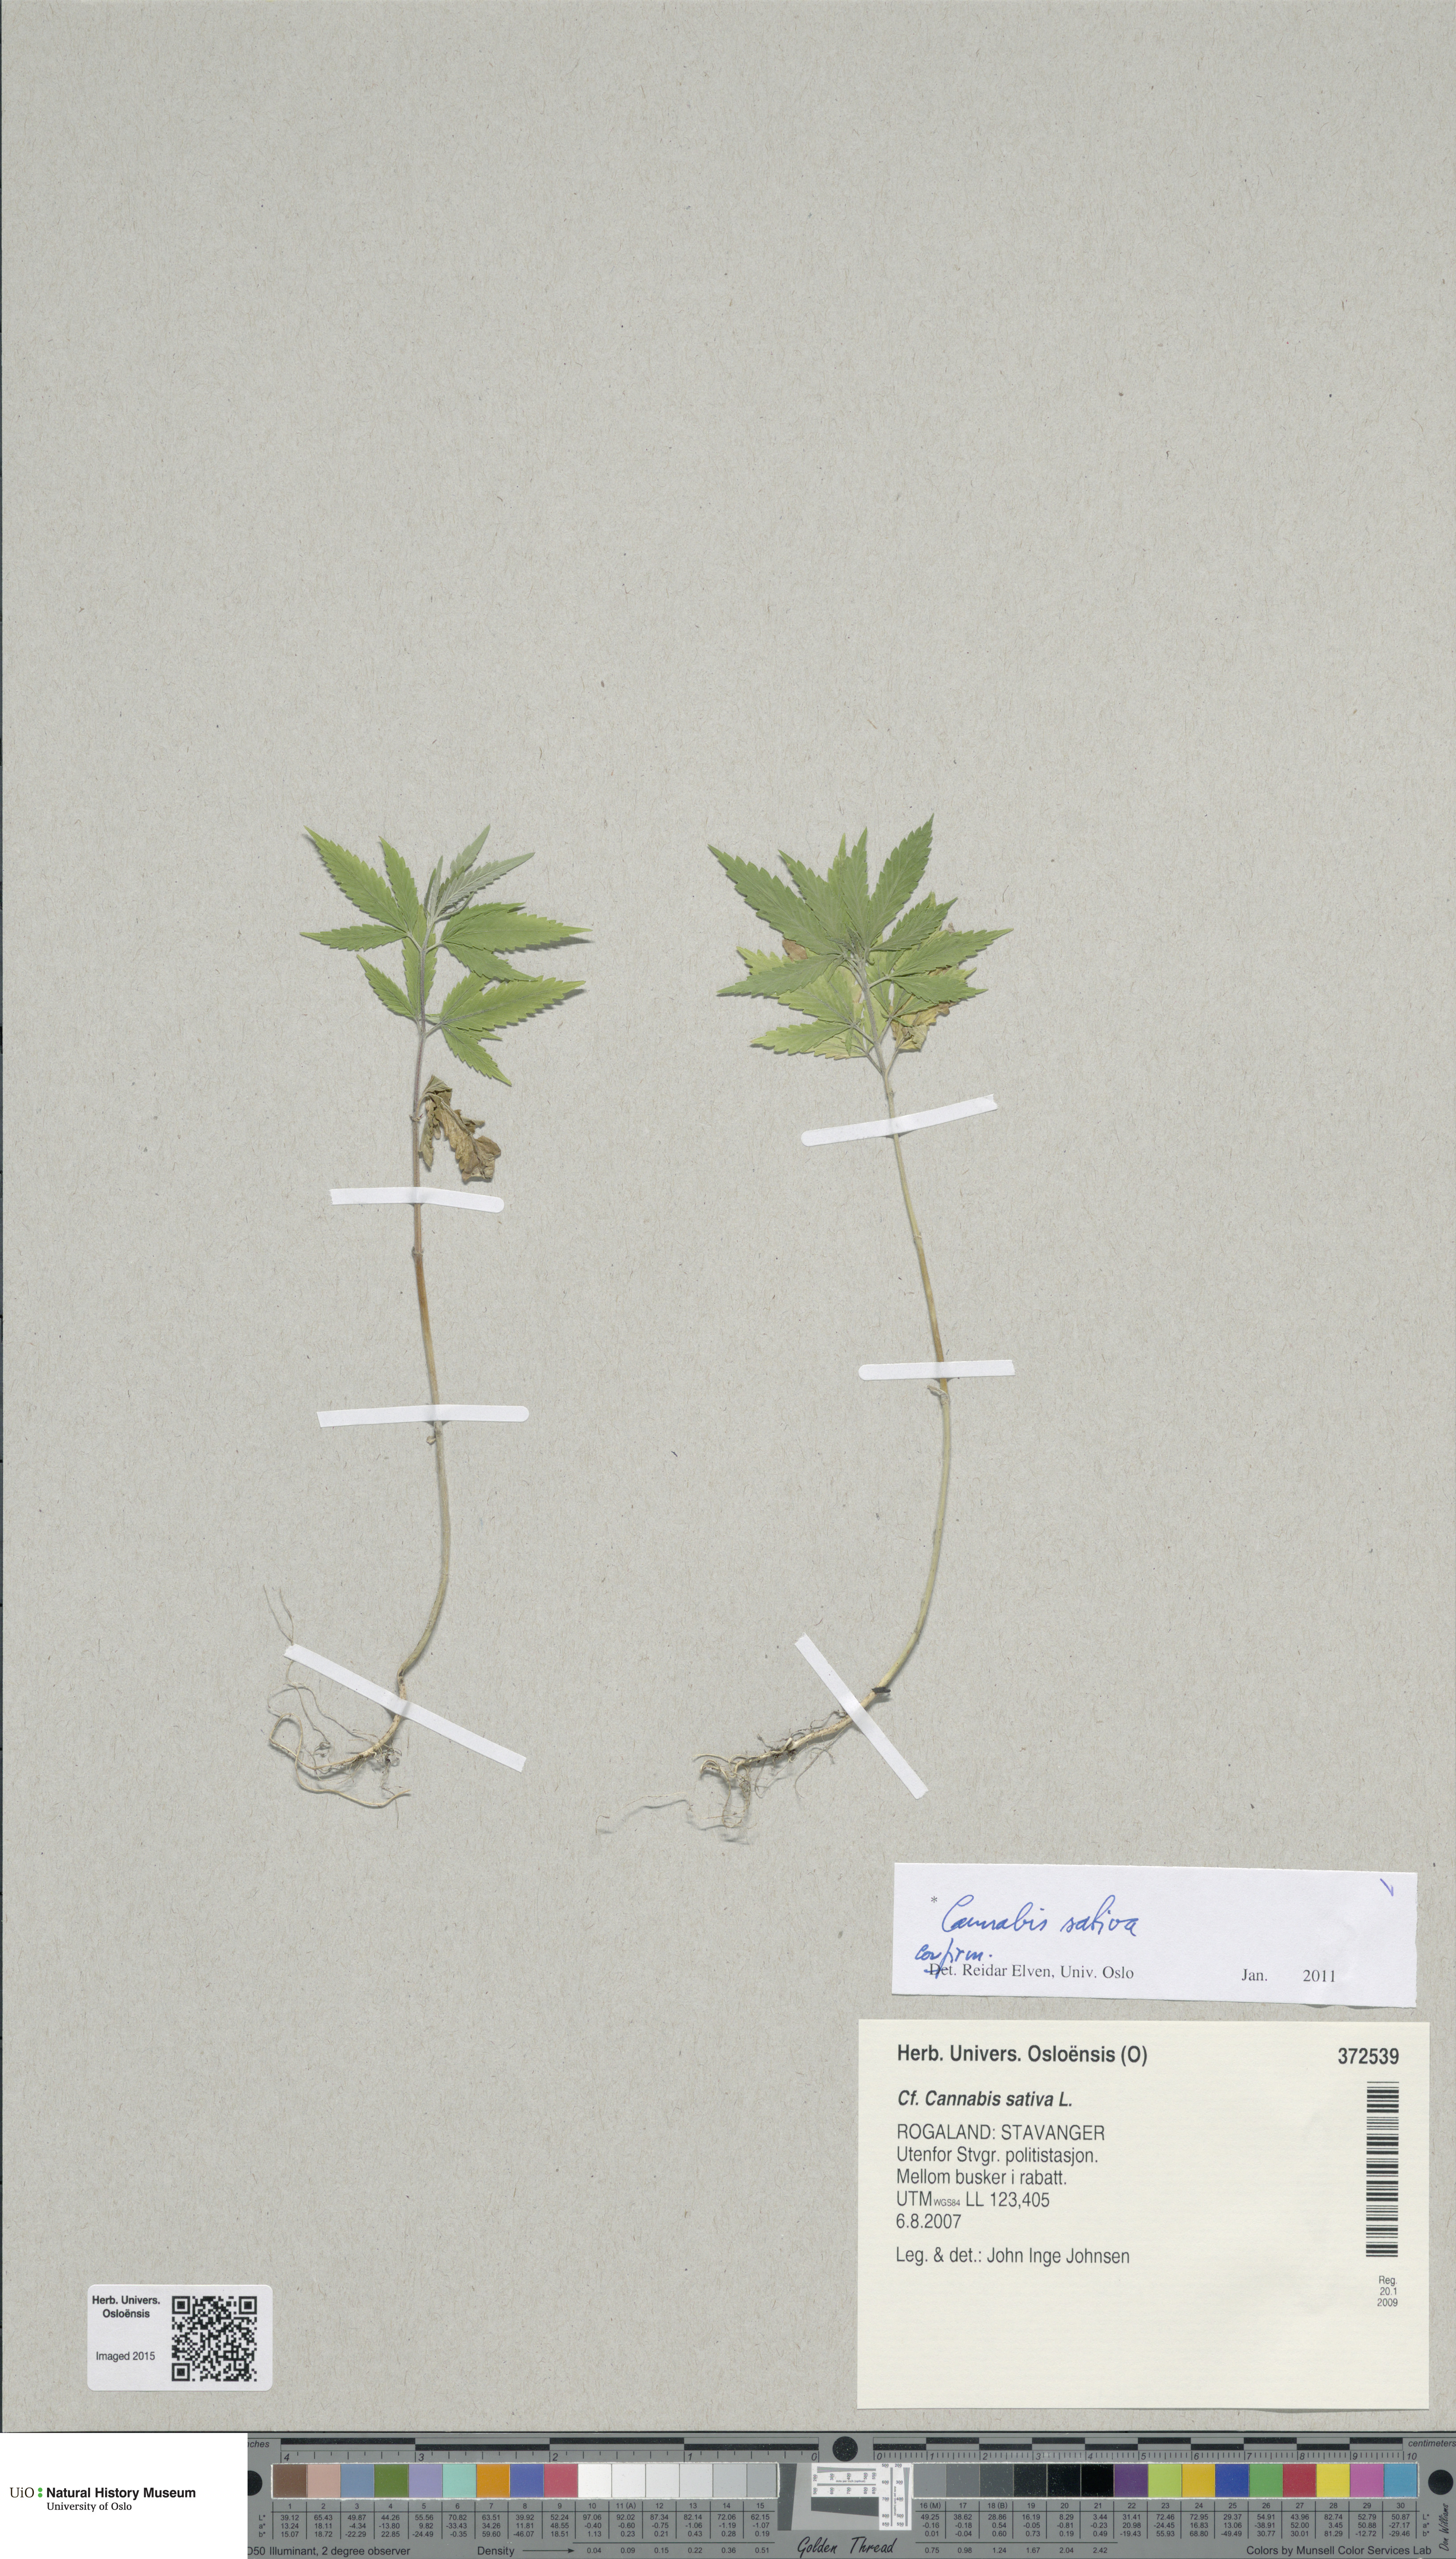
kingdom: Plantae
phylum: Tracheophyta
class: Magnoliopsida
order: Rosales
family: Cannabaceae
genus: Cannabis
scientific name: Cannabis sativa
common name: Hemp
